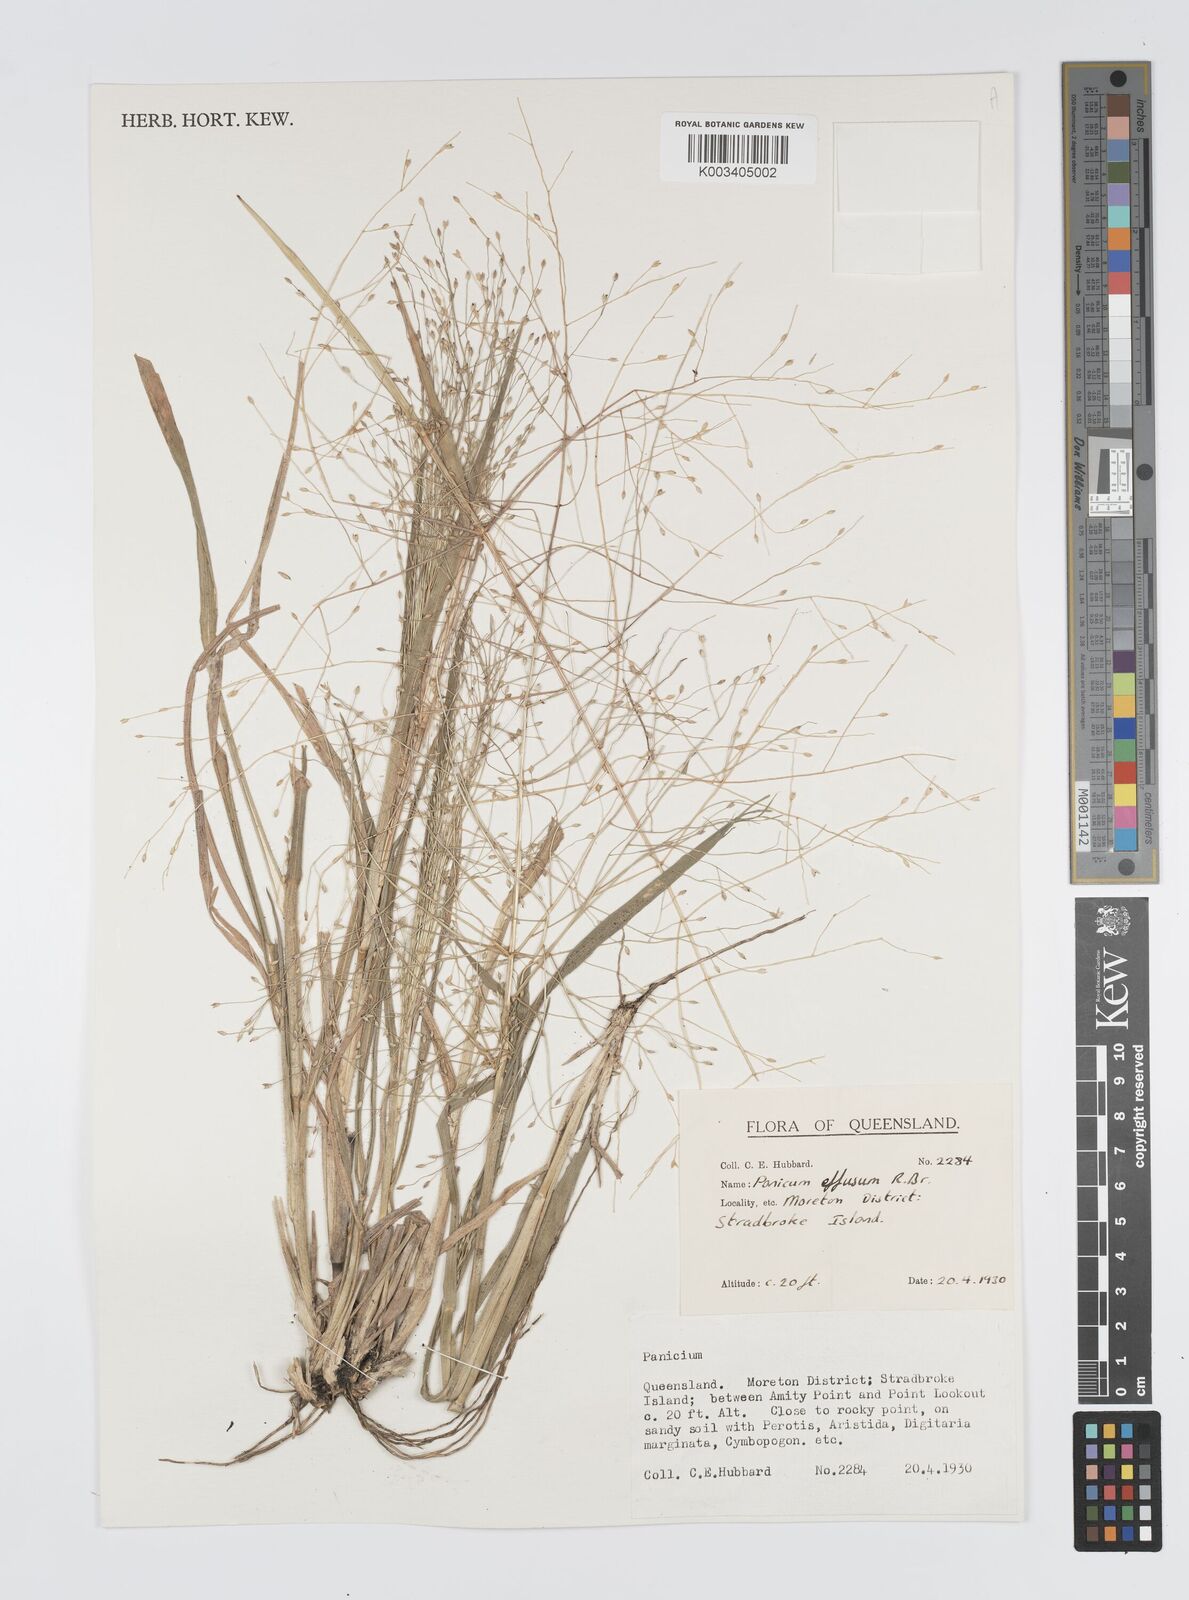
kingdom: Plantae
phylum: Tracheophyta
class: Liliopsida
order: Poales
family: Poaceae
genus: Panicum
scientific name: Panicum effusum
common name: Hairy panic grass
